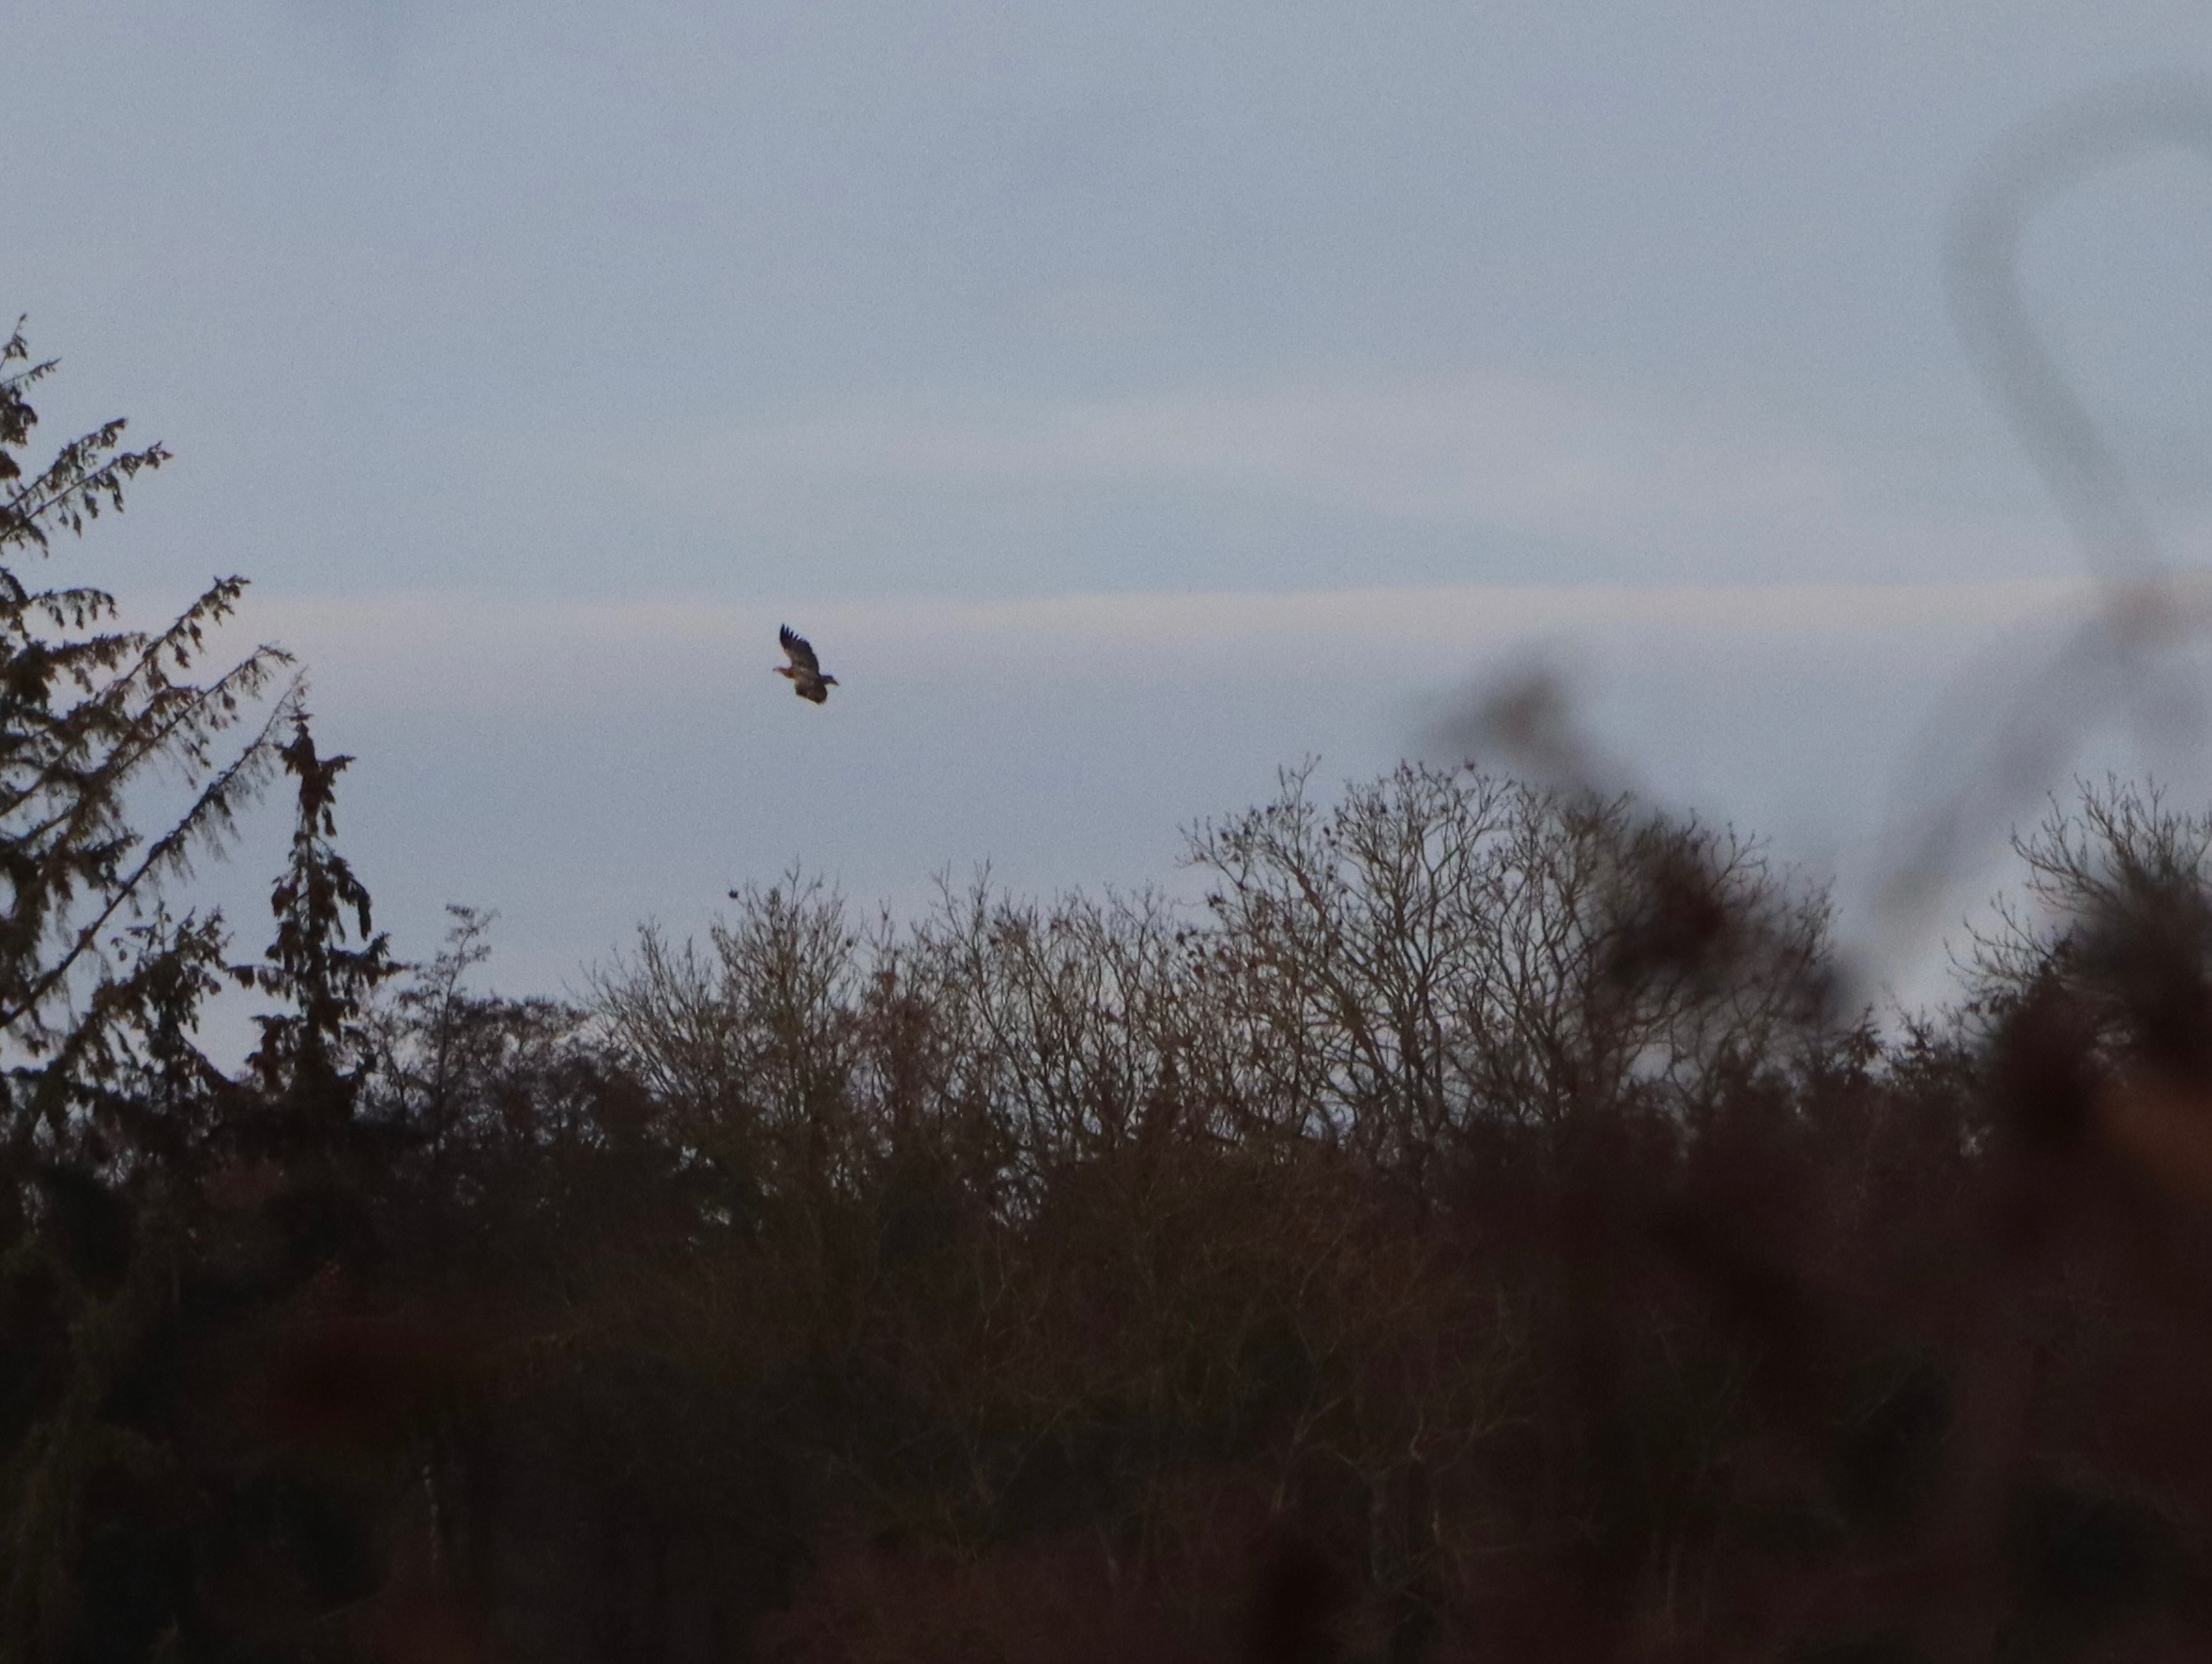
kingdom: Animalia
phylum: Chordata
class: Aves
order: Accipitriformes
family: Accipitridae
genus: Haliaeetus
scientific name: Haliaeetus albicilla
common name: Havørn
